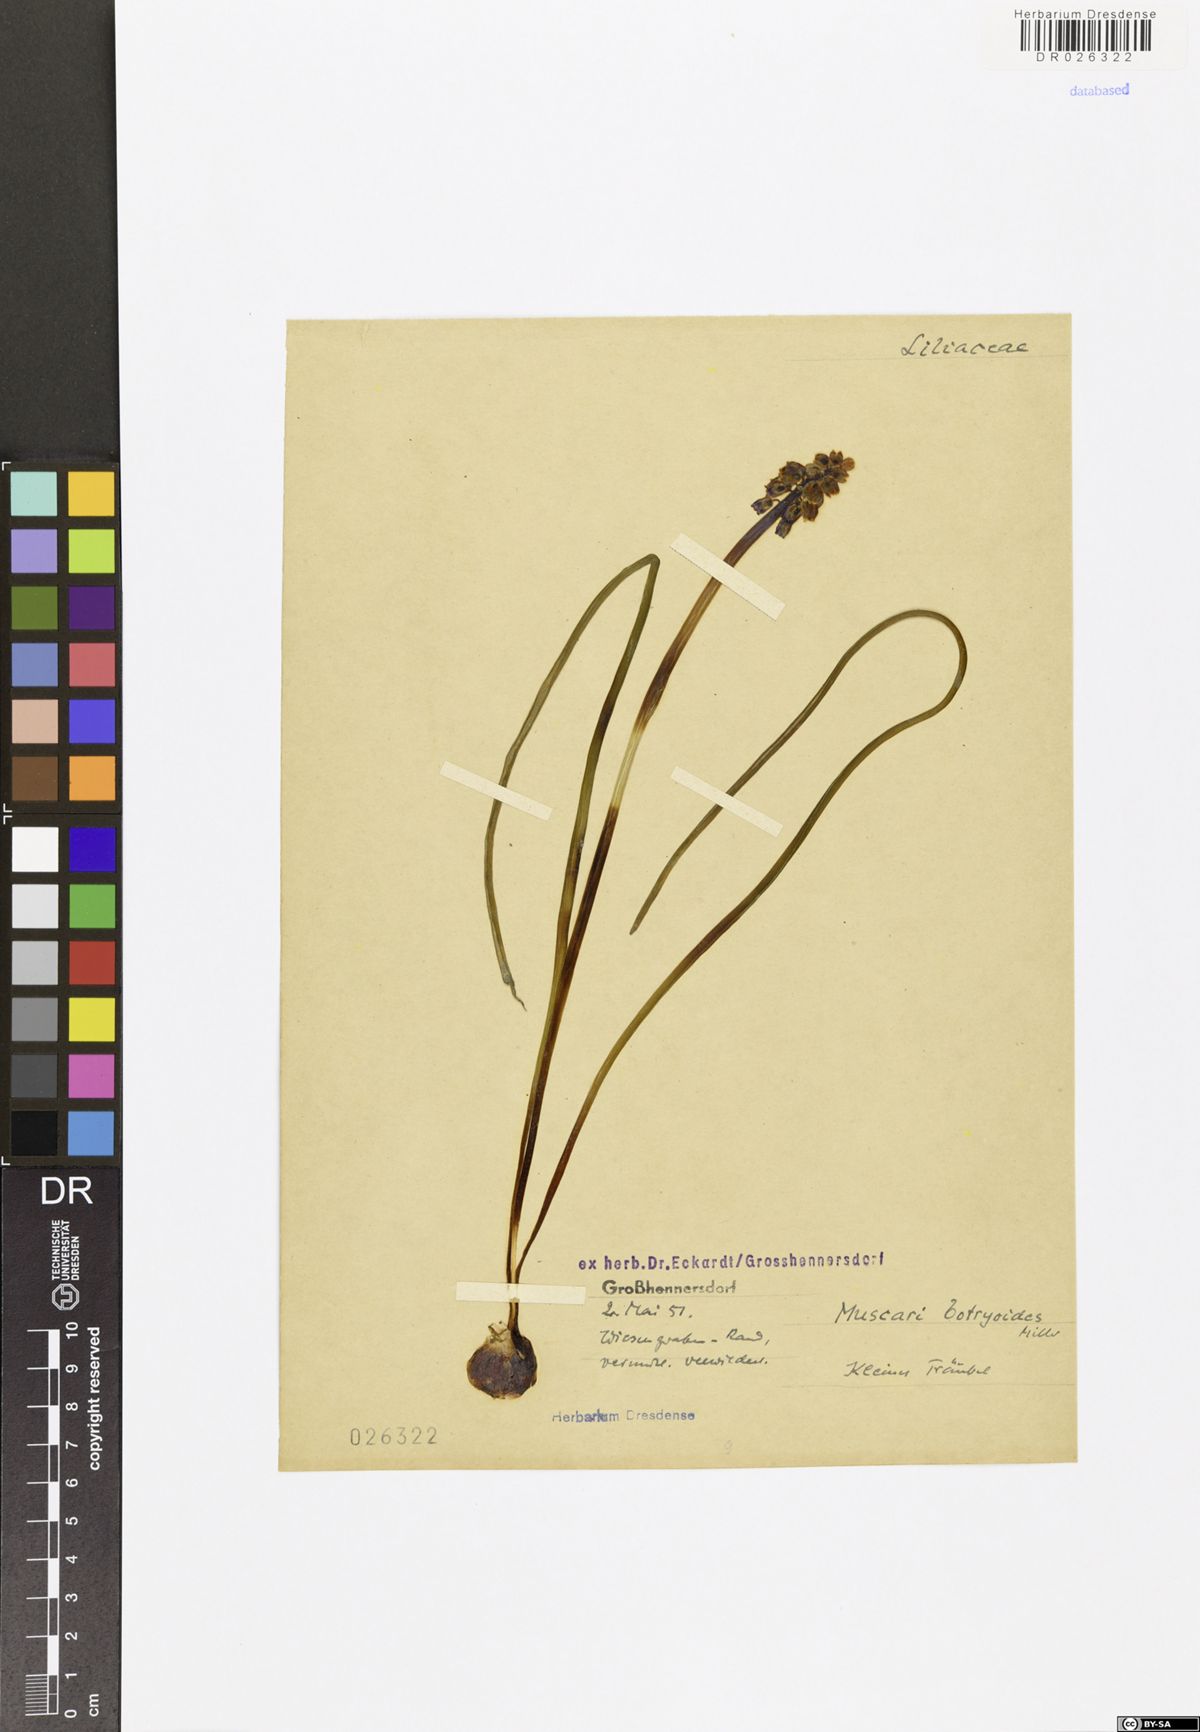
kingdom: Plantae
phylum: Tracheophyta
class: Liliopsida
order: Asparagales
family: Asparagaceae
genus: Muscari
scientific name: Muscari botryoides
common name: Compact grape-hyacinth
